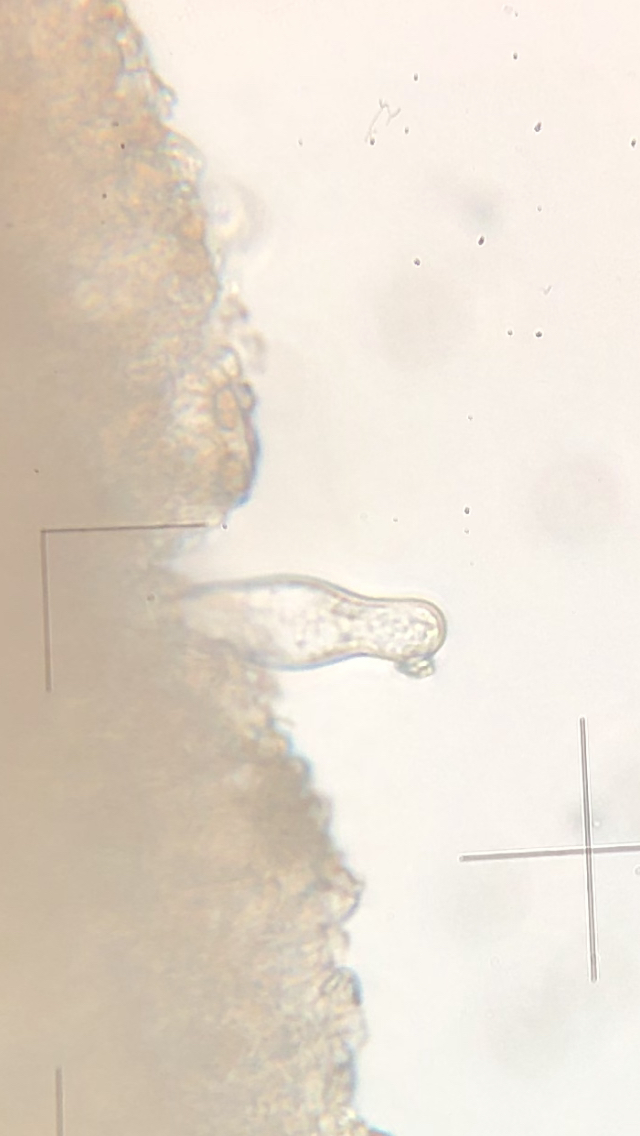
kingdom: Fungi
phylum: Basidiomycota
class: Agaricomycetes
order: Agaricales
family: Inocybaceae
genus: Inocybe
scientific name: Inocybe
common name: trævlhat
